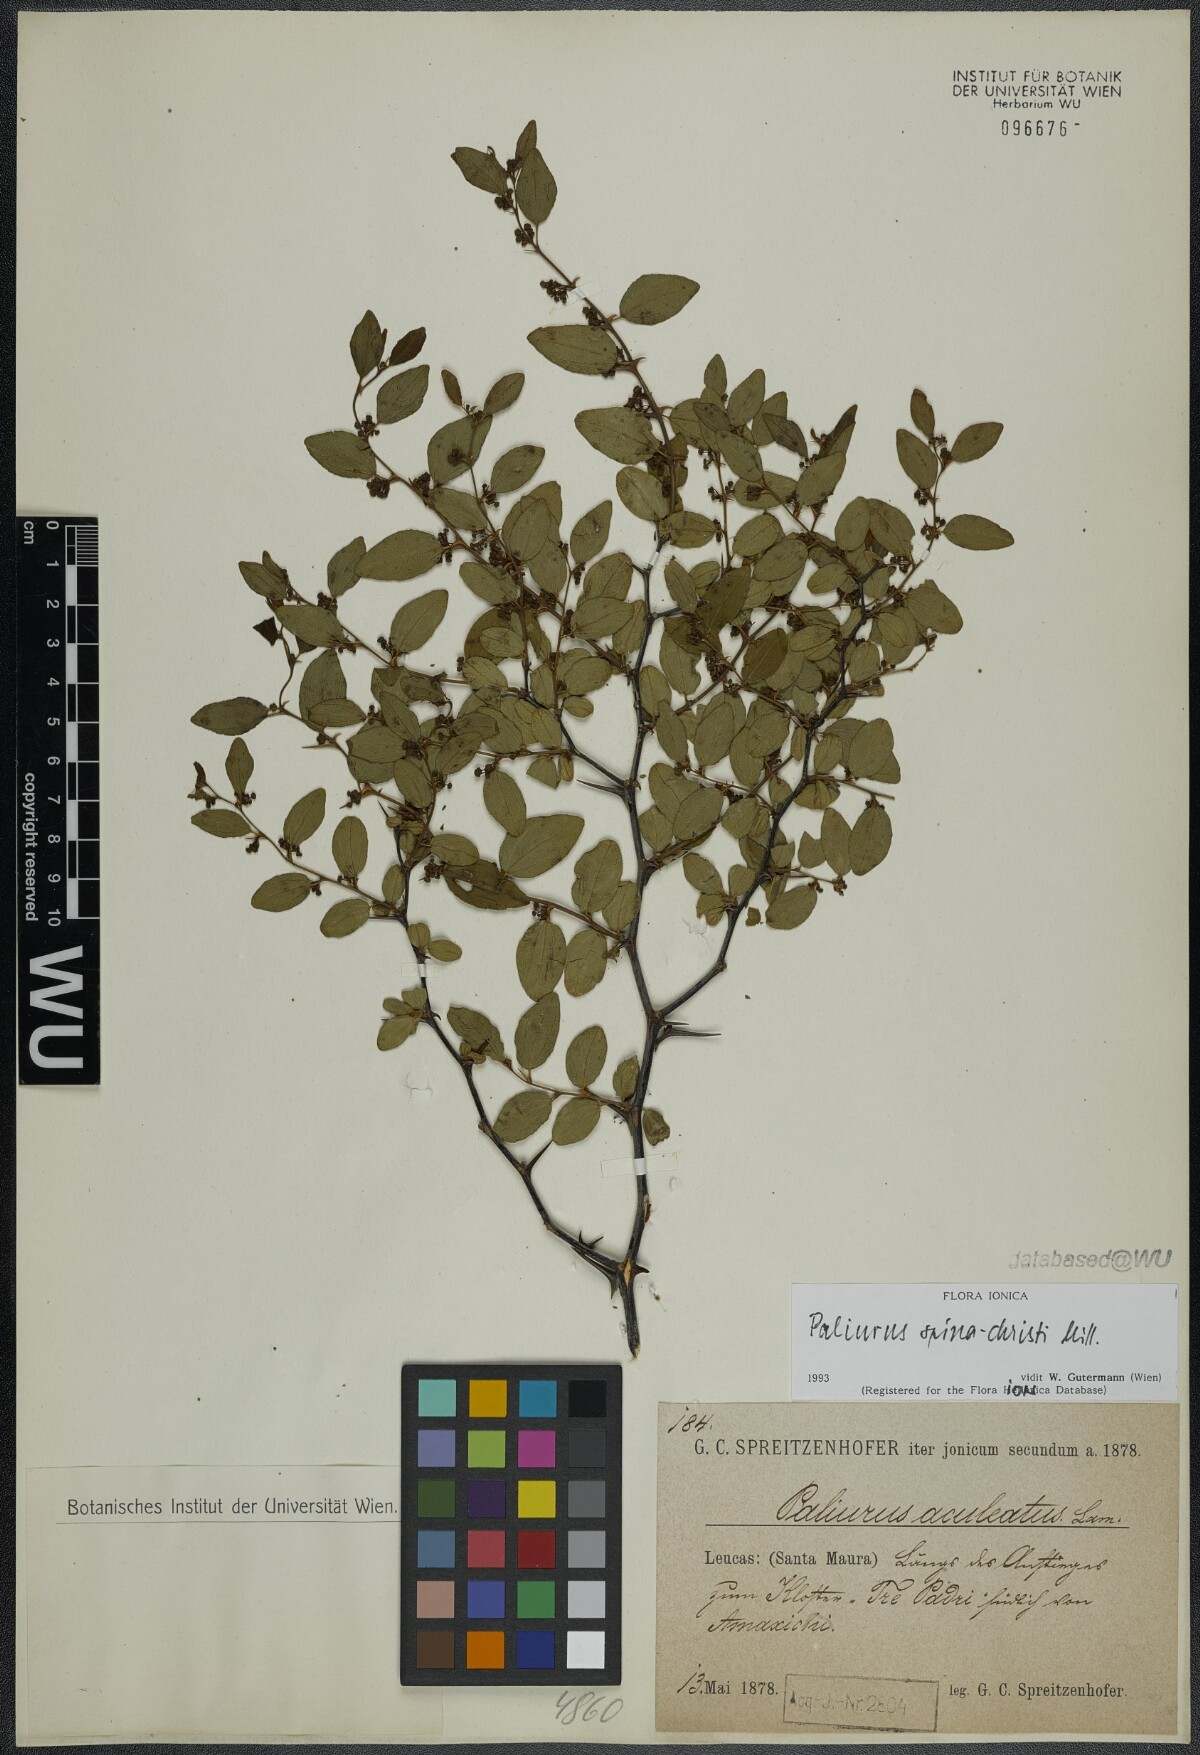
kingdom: Plantae
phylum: Tracheophyta
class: Magnoliopsida
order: Rosales
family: Rhamnaceae
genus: Paliurus
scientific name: Paliurus spina-christi
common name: Jeruselem thorn
